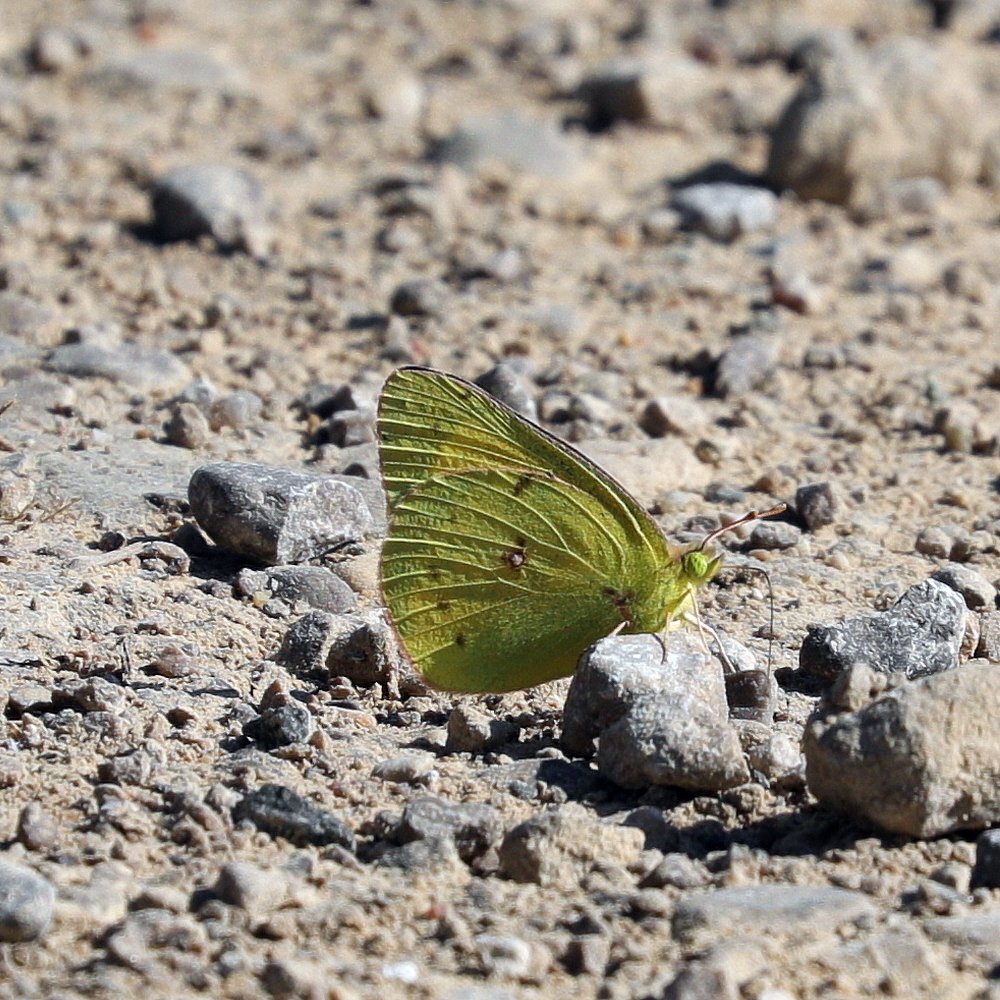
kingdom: Animalia
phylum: Arthropoda
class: Insecta
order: Lepidoptera
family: Pieridae
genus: Colias
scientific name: Colias eurytheme
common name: Orange Sulphur
